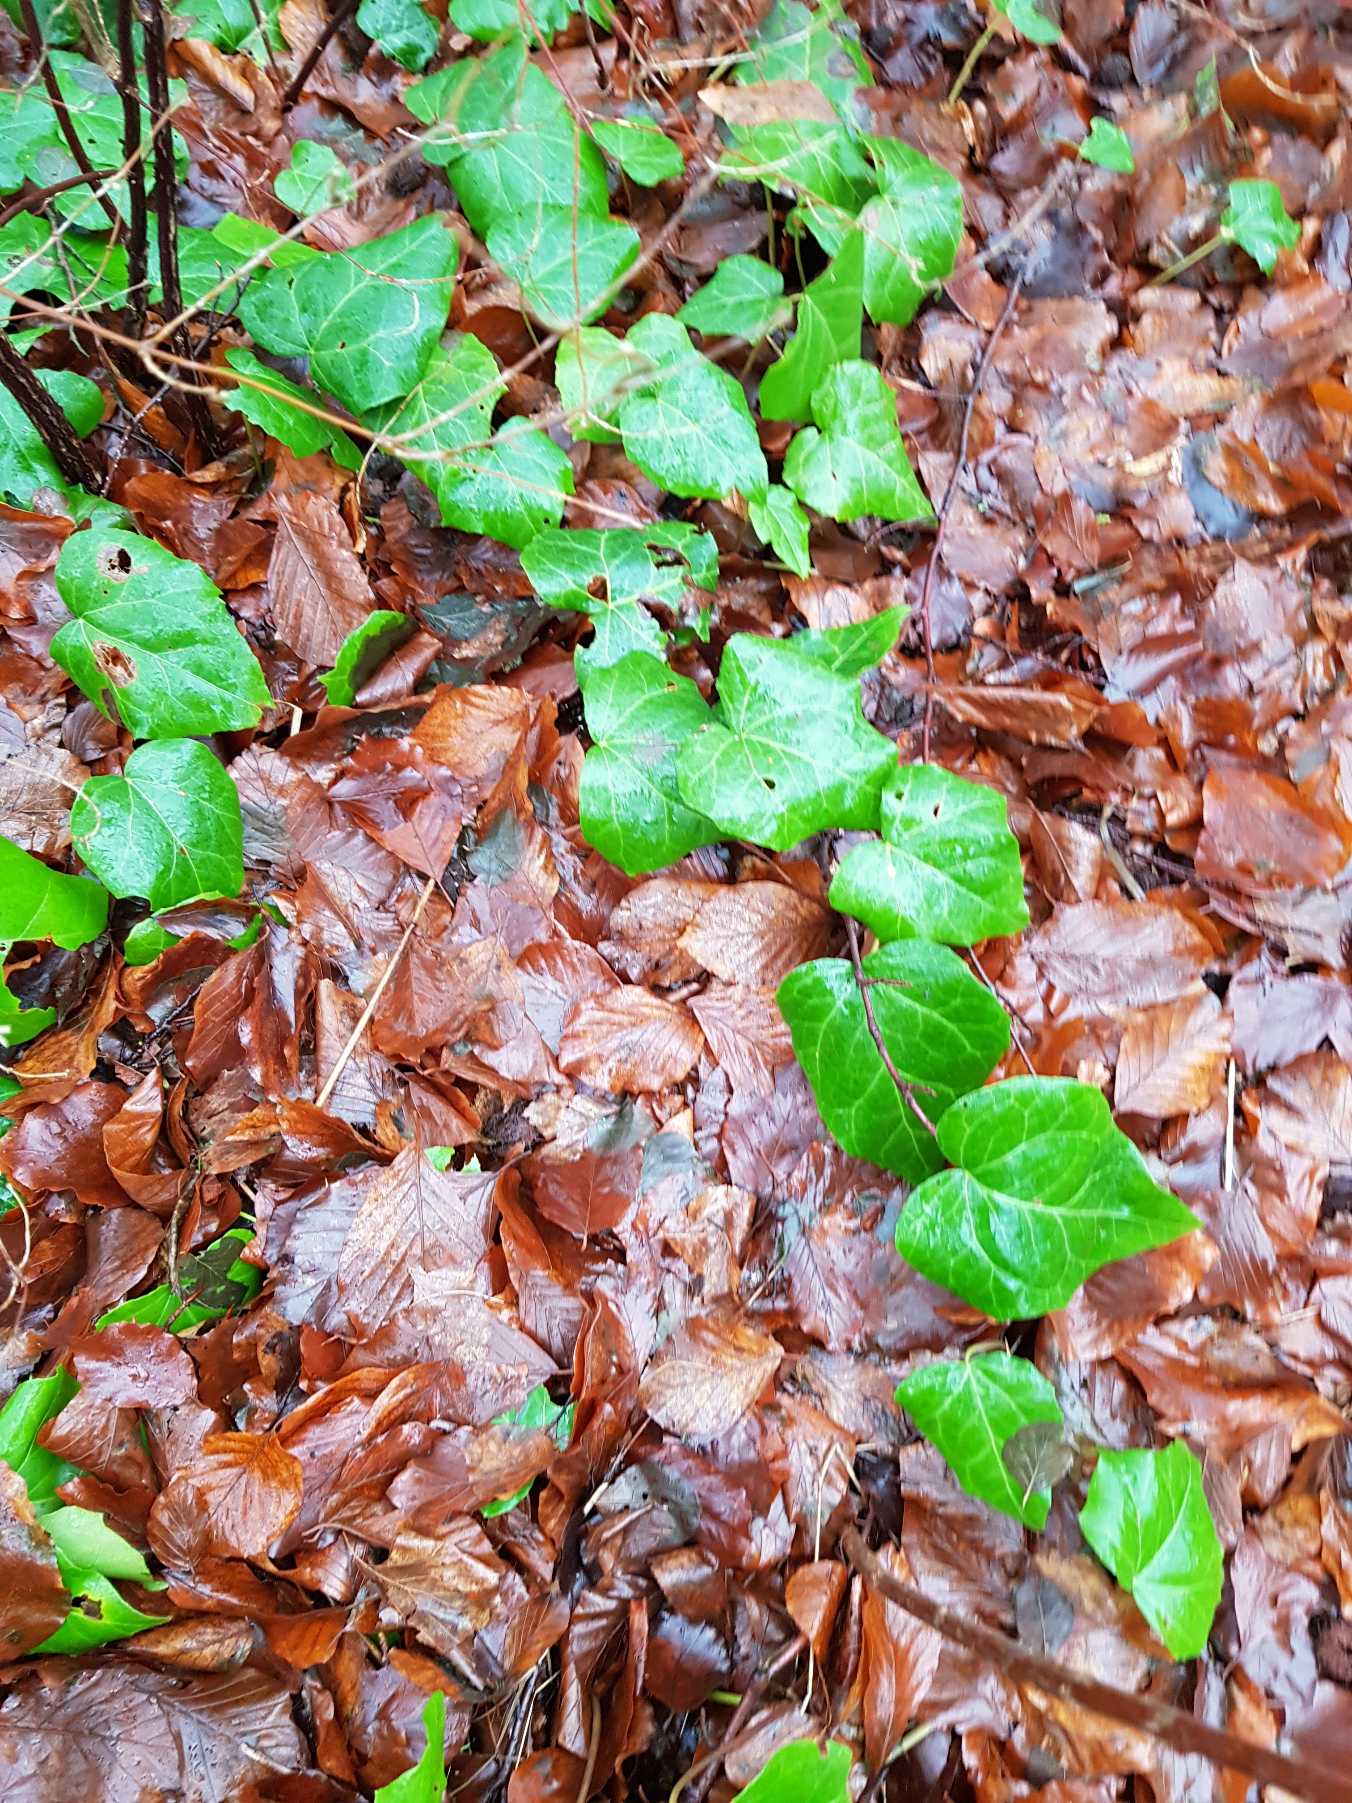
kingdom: Plantae
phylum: Tracheophyta
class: Magnoliopsida
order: Apiales
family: Araliaceae
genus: Hedera
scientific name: Hedera colchica
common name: Kæmpe-vedbend
